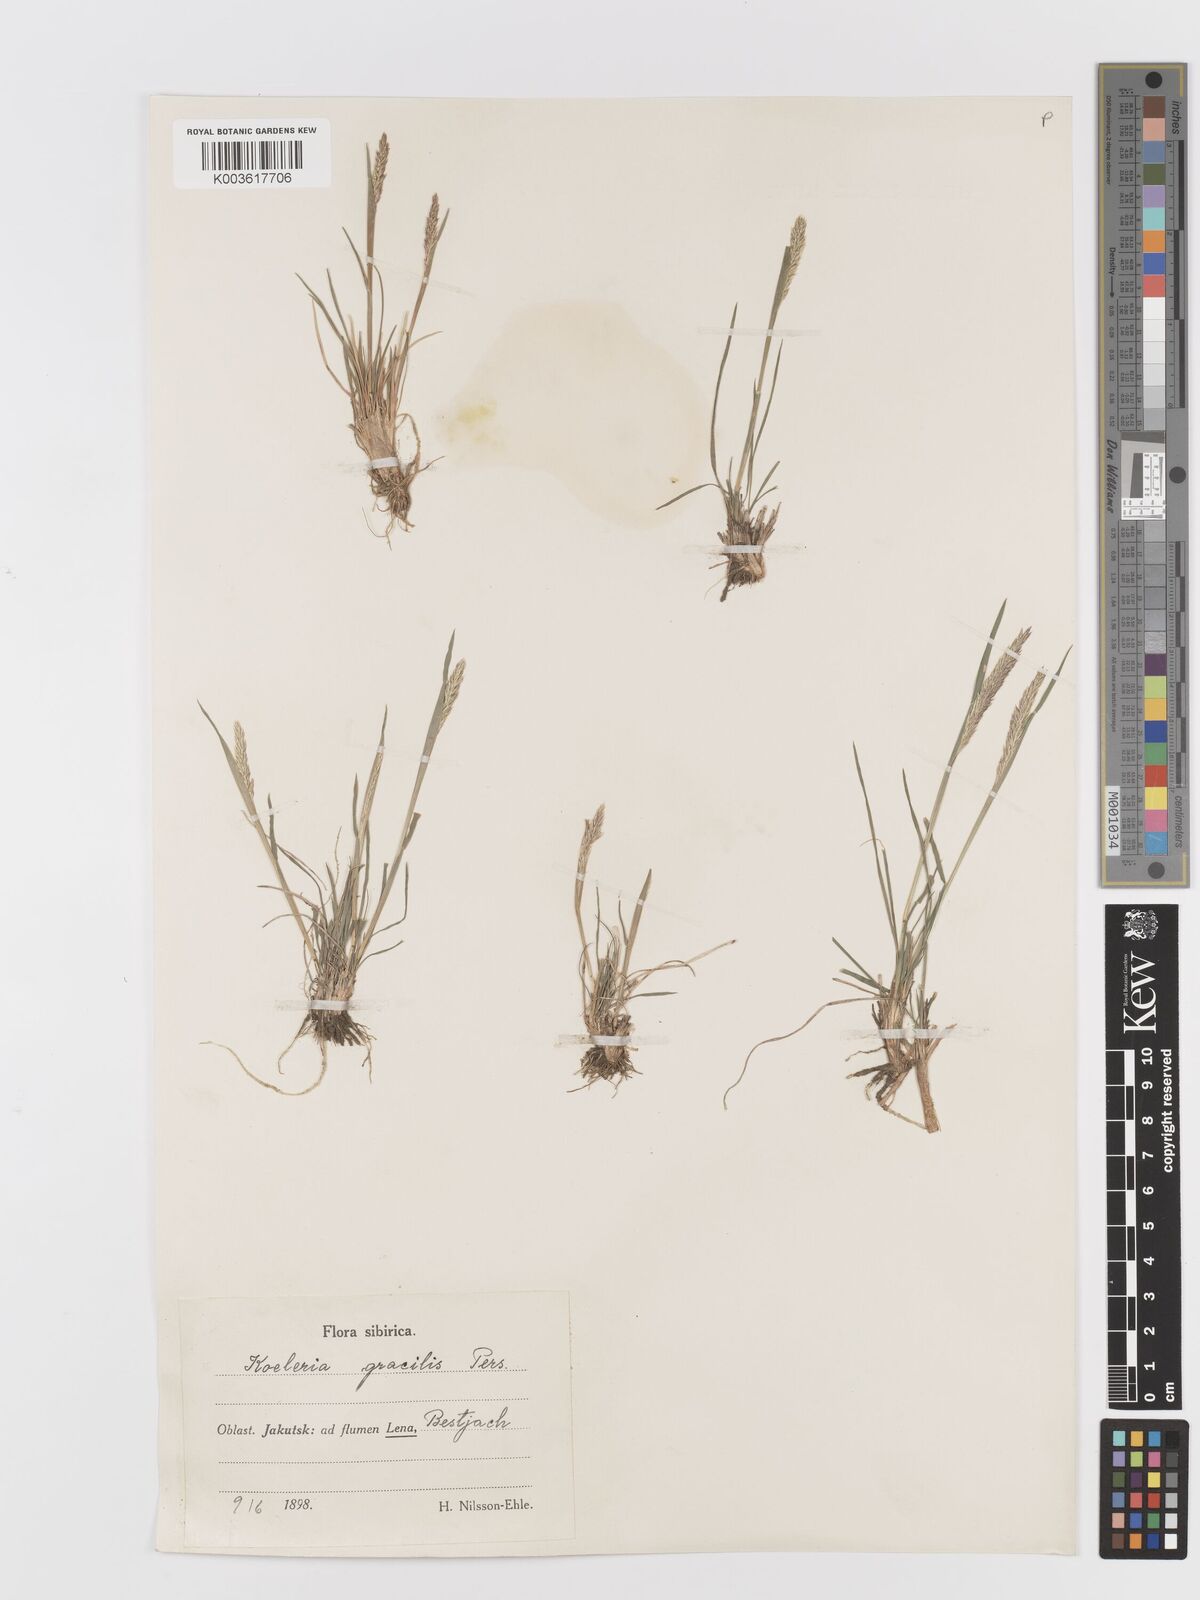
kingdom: Plantae
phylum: Tracheophyta
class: Liliopsida
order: Poales
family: Poaceae
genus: Koeleria
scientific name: Koeleria pyramidata
